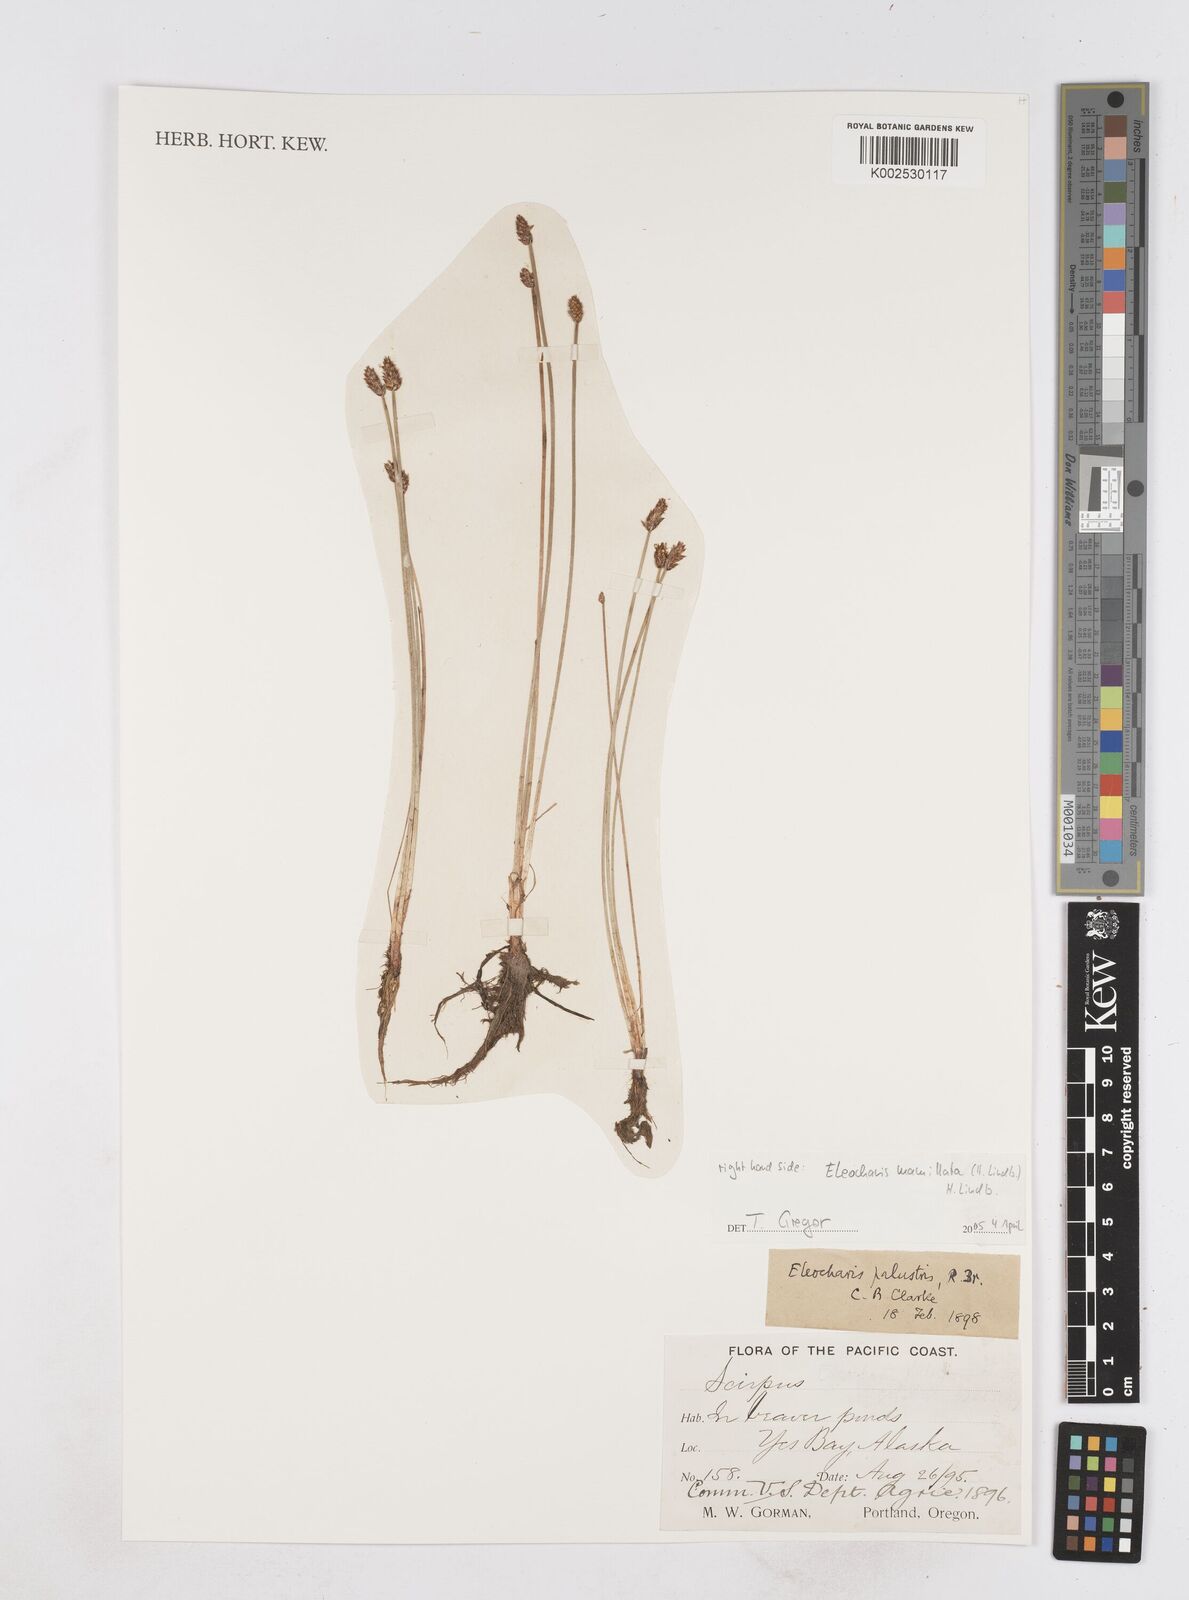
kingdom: Plantae
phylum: Tracheophyta
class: Liliopsida
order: Poales
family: Cyperaceae
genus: Eleocharis
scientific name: Eleocharis mamillata
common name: Northern spike-rush
